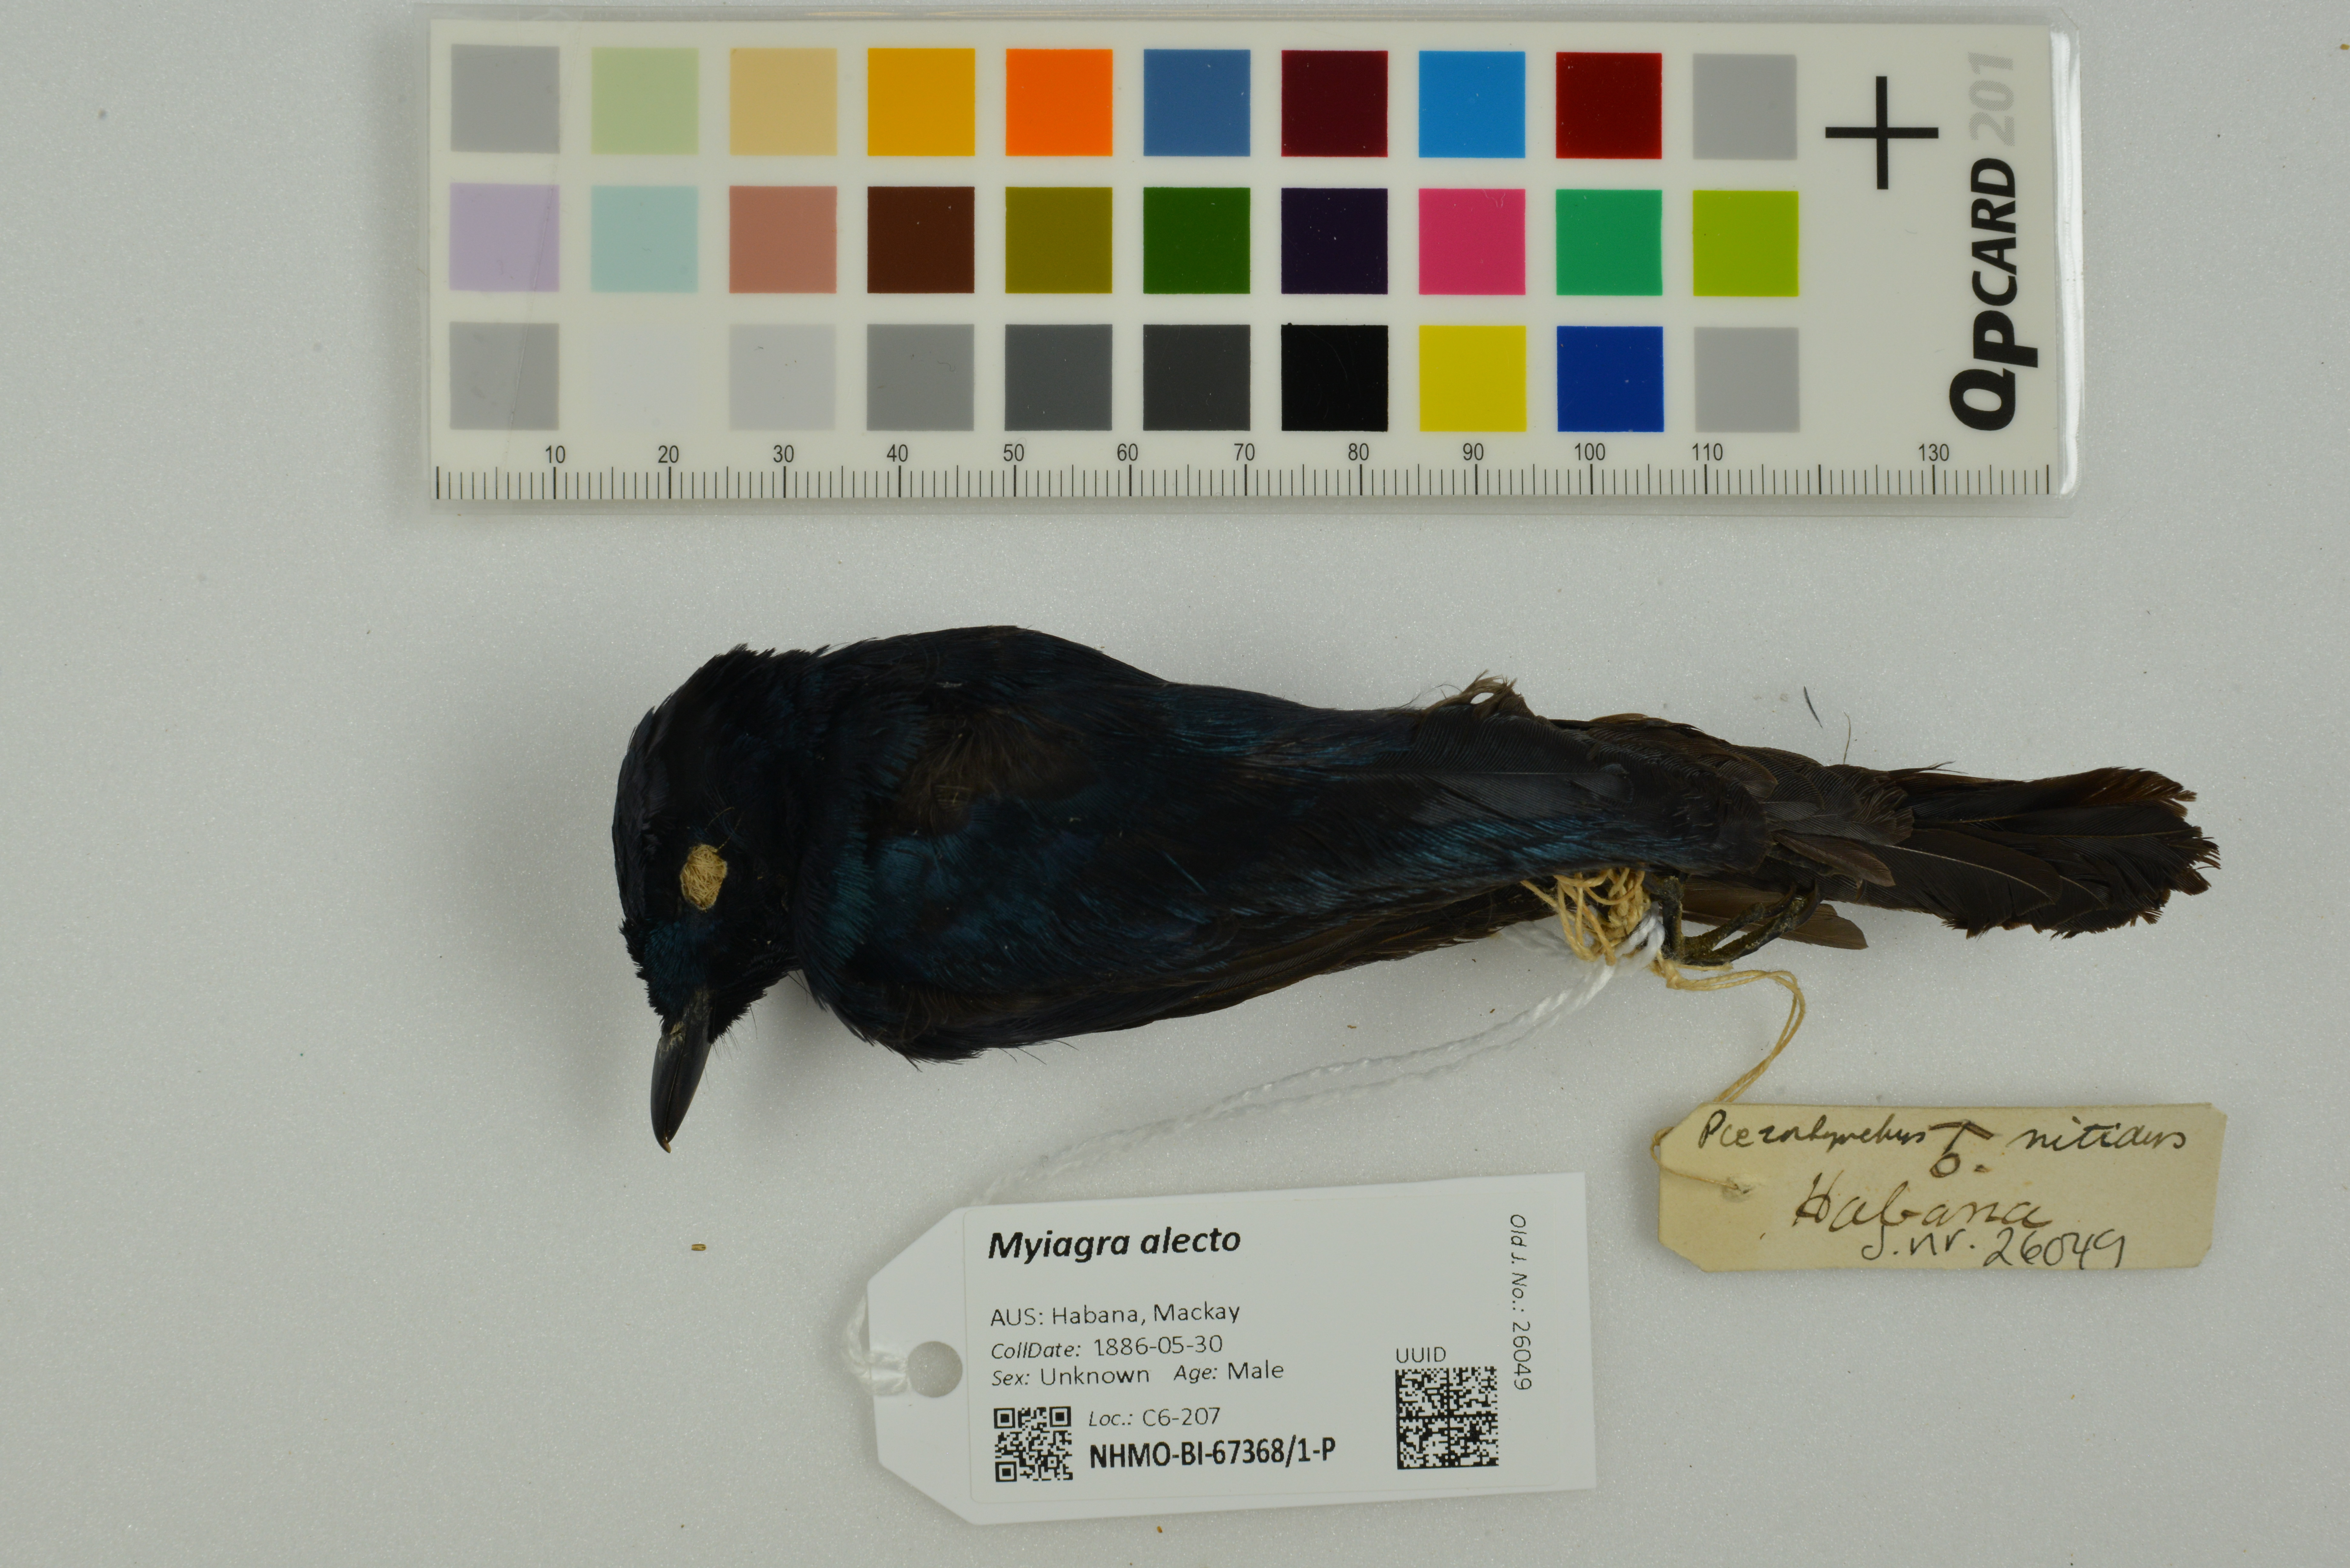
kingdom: Animalia
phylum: Chordata
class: Aves
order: Passeriformes
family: Monarchidae
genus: Myiagra
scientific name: Myiagra alecto
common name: Shining flycatcher
